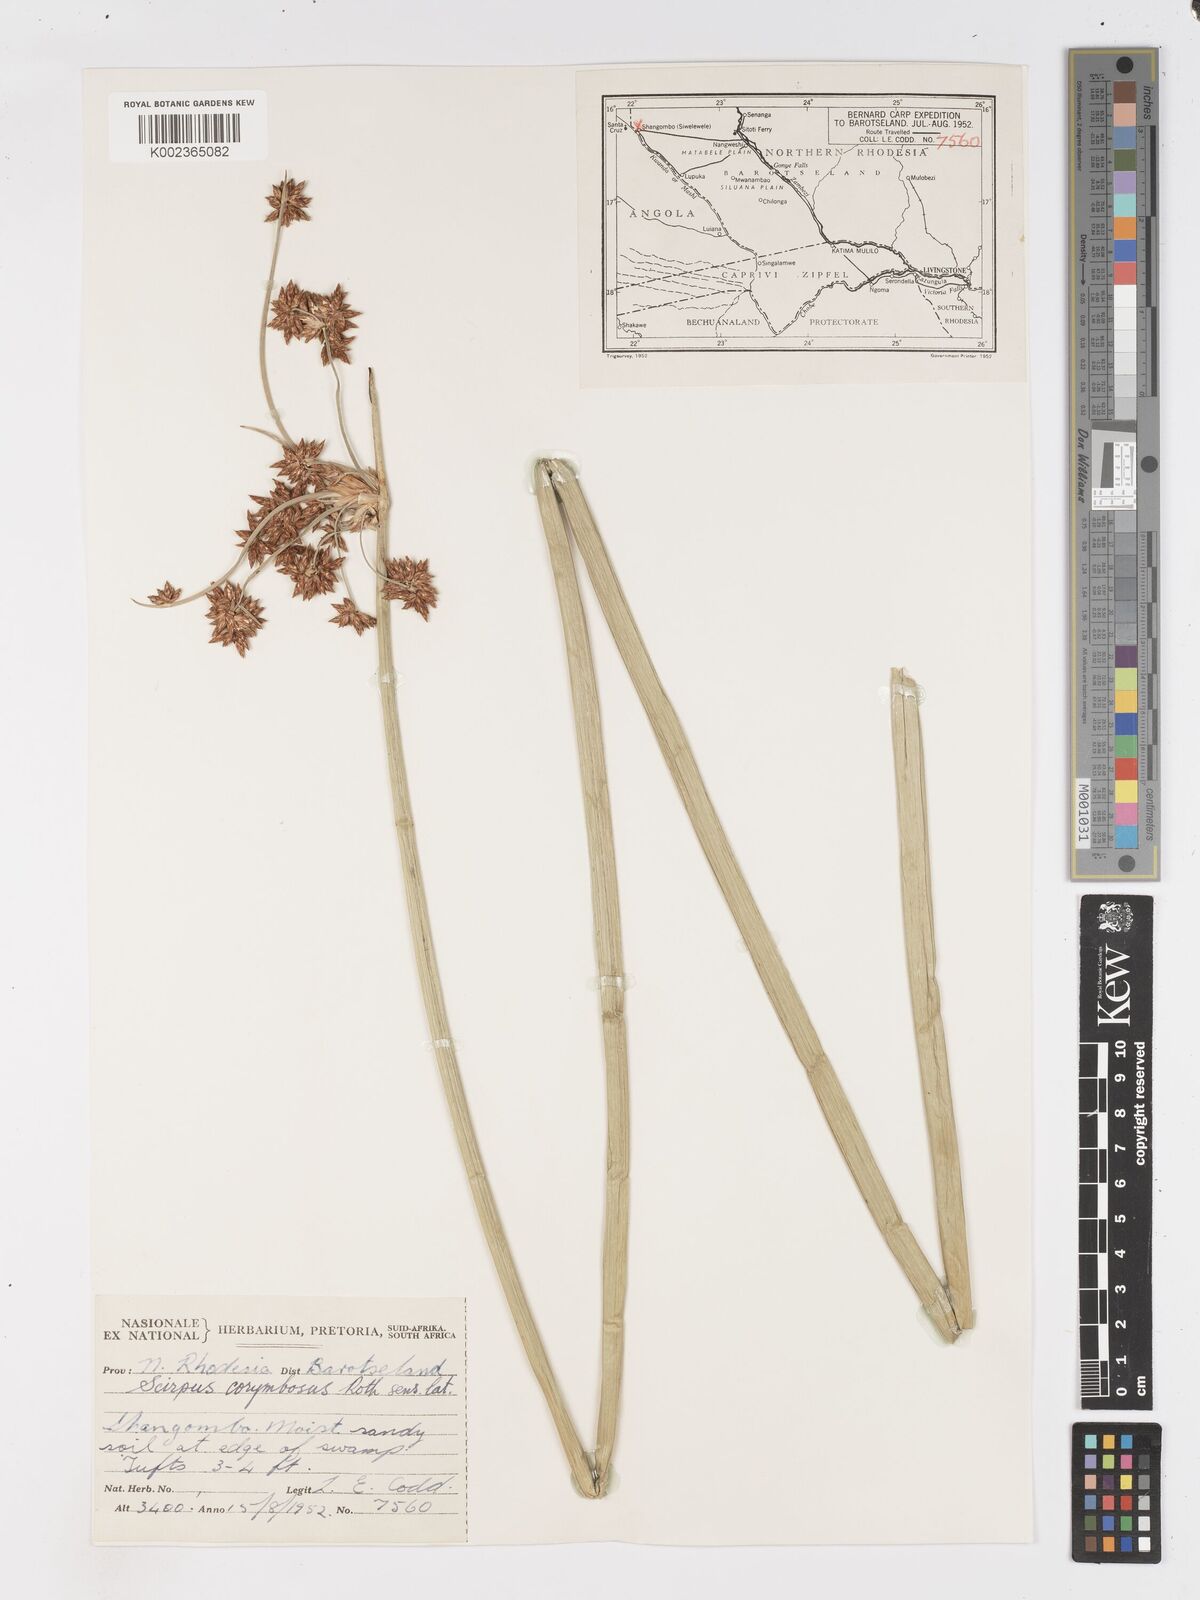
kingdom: Plantae
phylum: Tracheophyta
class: Liliopsida
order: Poales
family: Cyperaceae
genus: Schoenoplectiella
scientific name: Schoenoplectiella corymbosa
